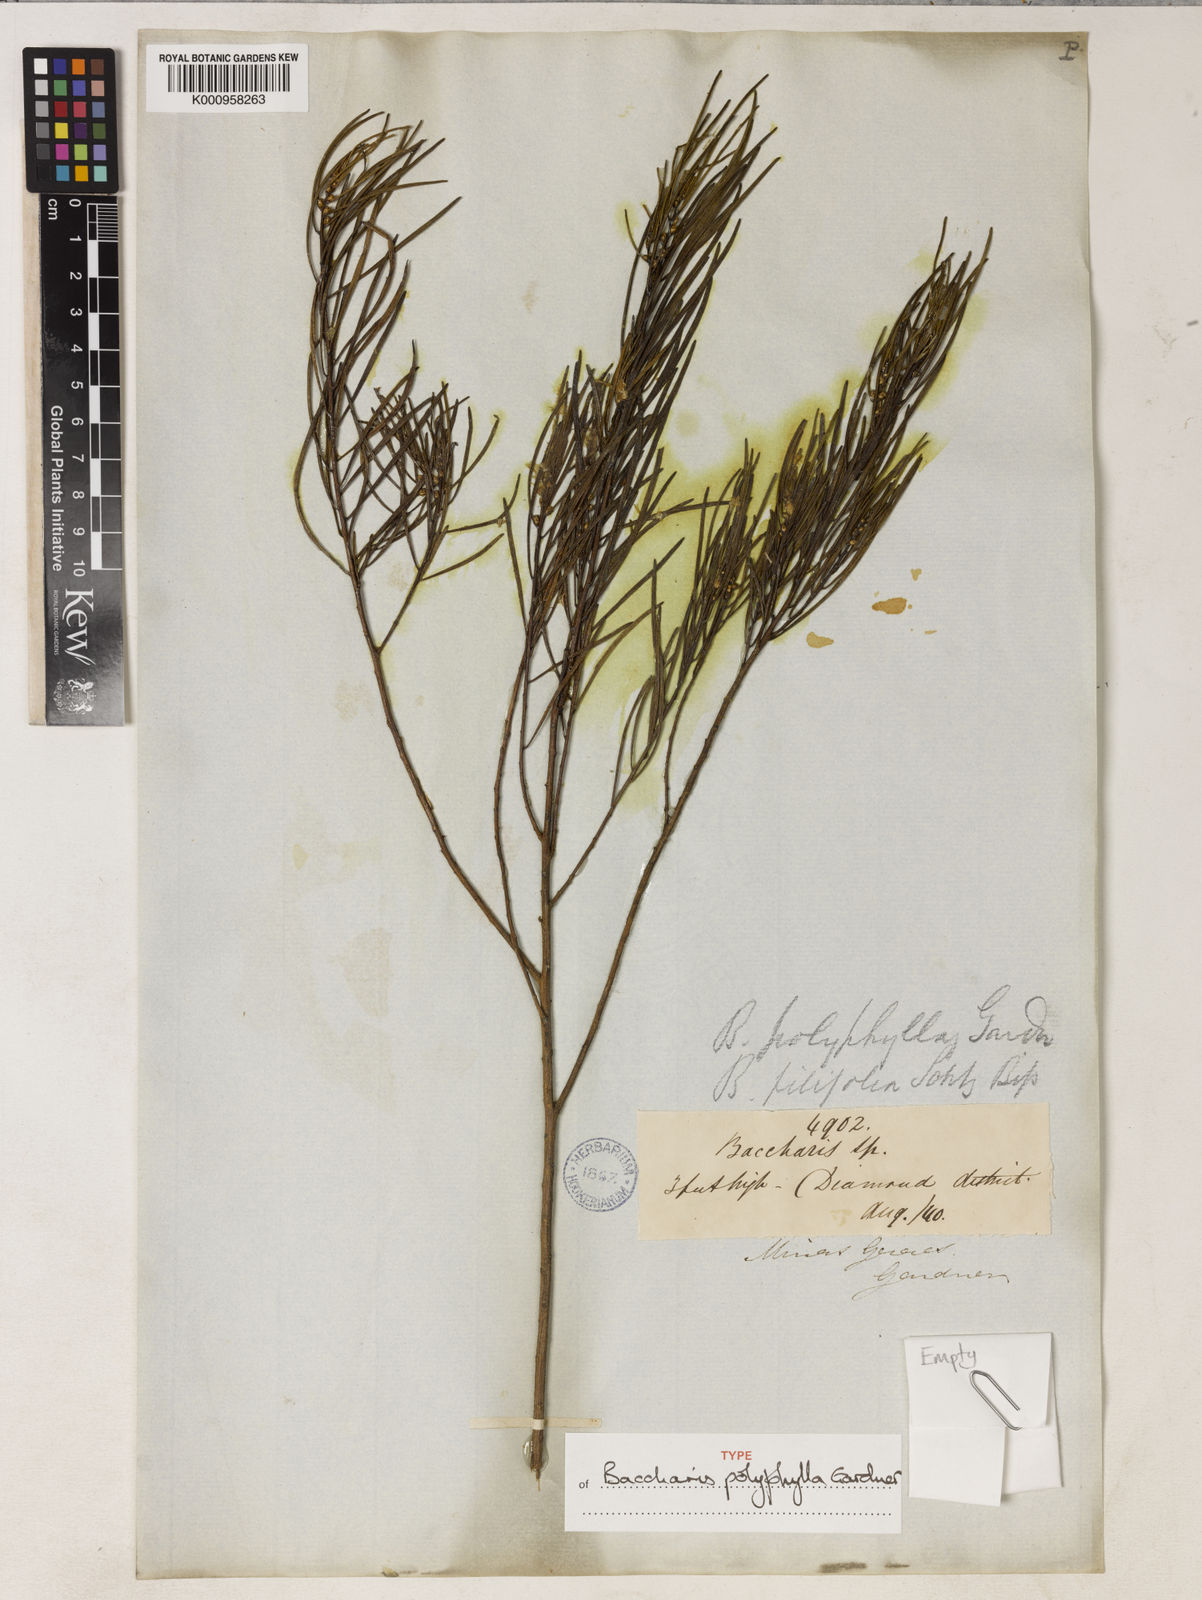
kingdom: Plantae
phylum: Tracheophyta
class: Magnoliopsida
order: Asterales
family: Asteraceae
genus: Baccharis
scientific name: Baccharis polyphylla
